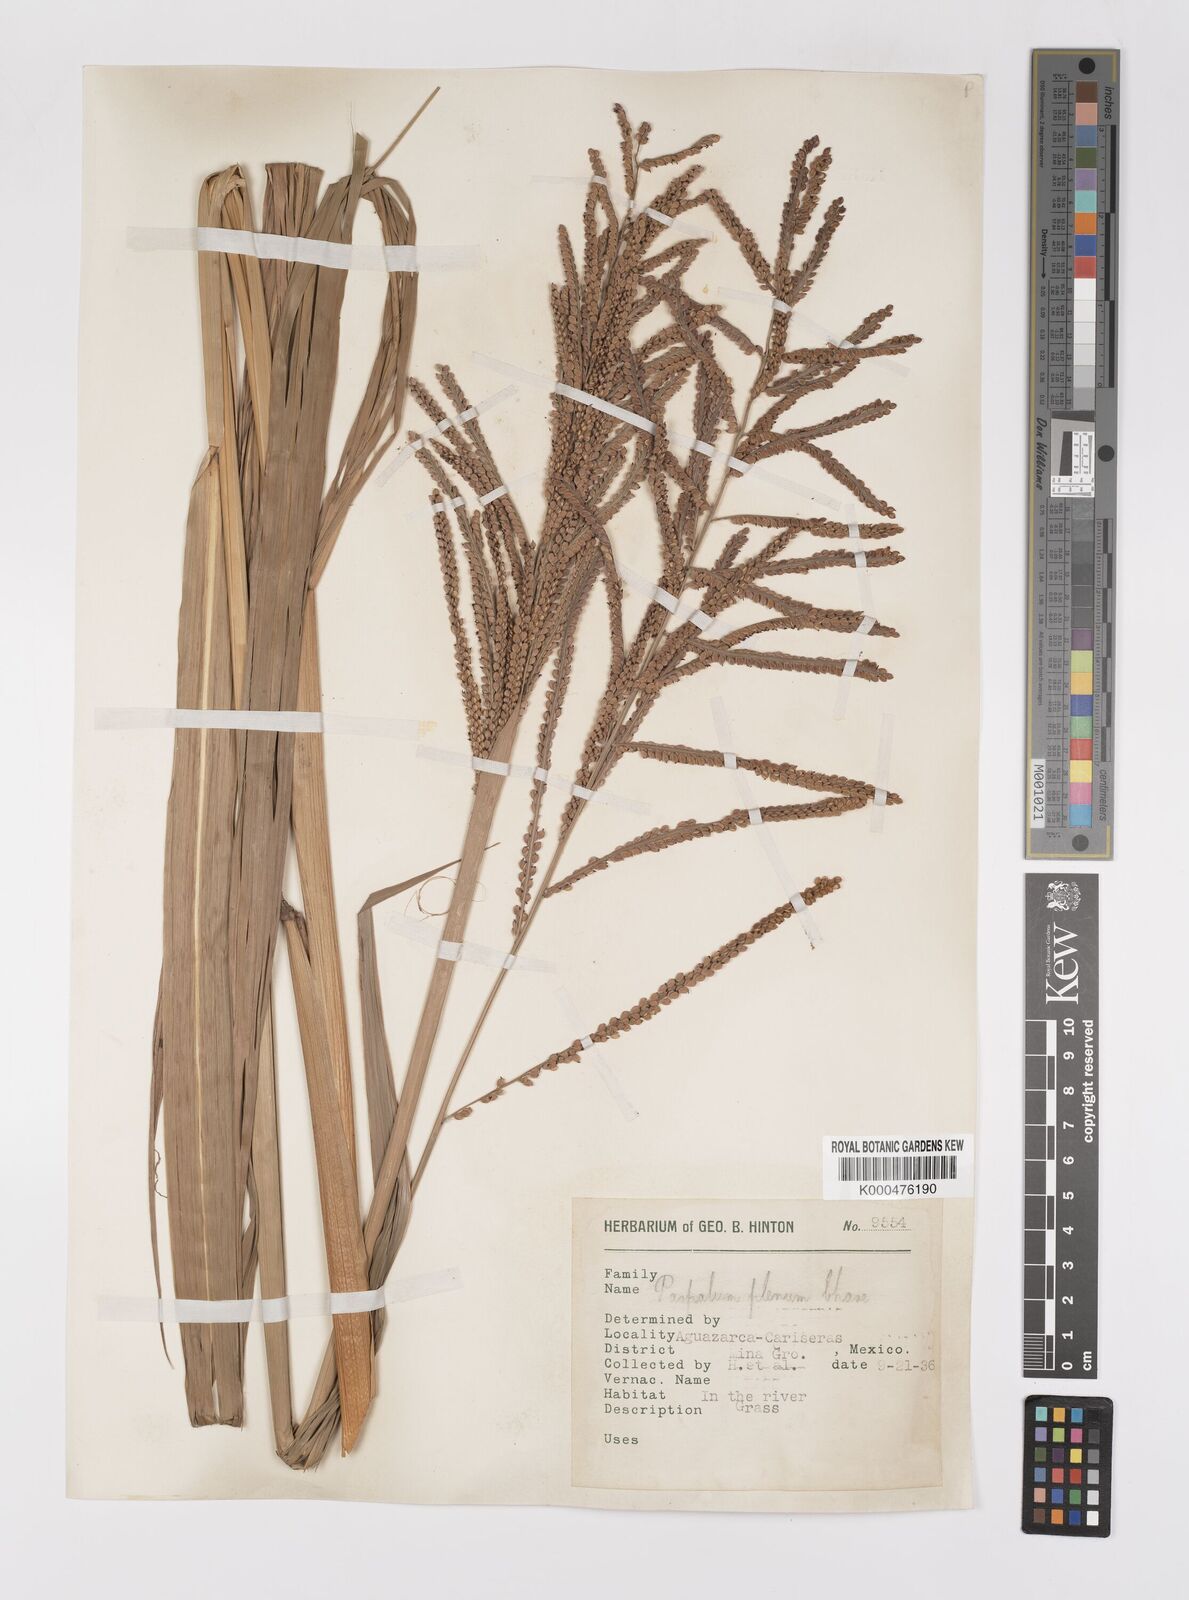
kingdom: Plantae
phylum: Tracheophyta
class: Liliopsida
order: Poales
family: Poaceae
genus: Paspalum
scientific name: Paspalum plenum
